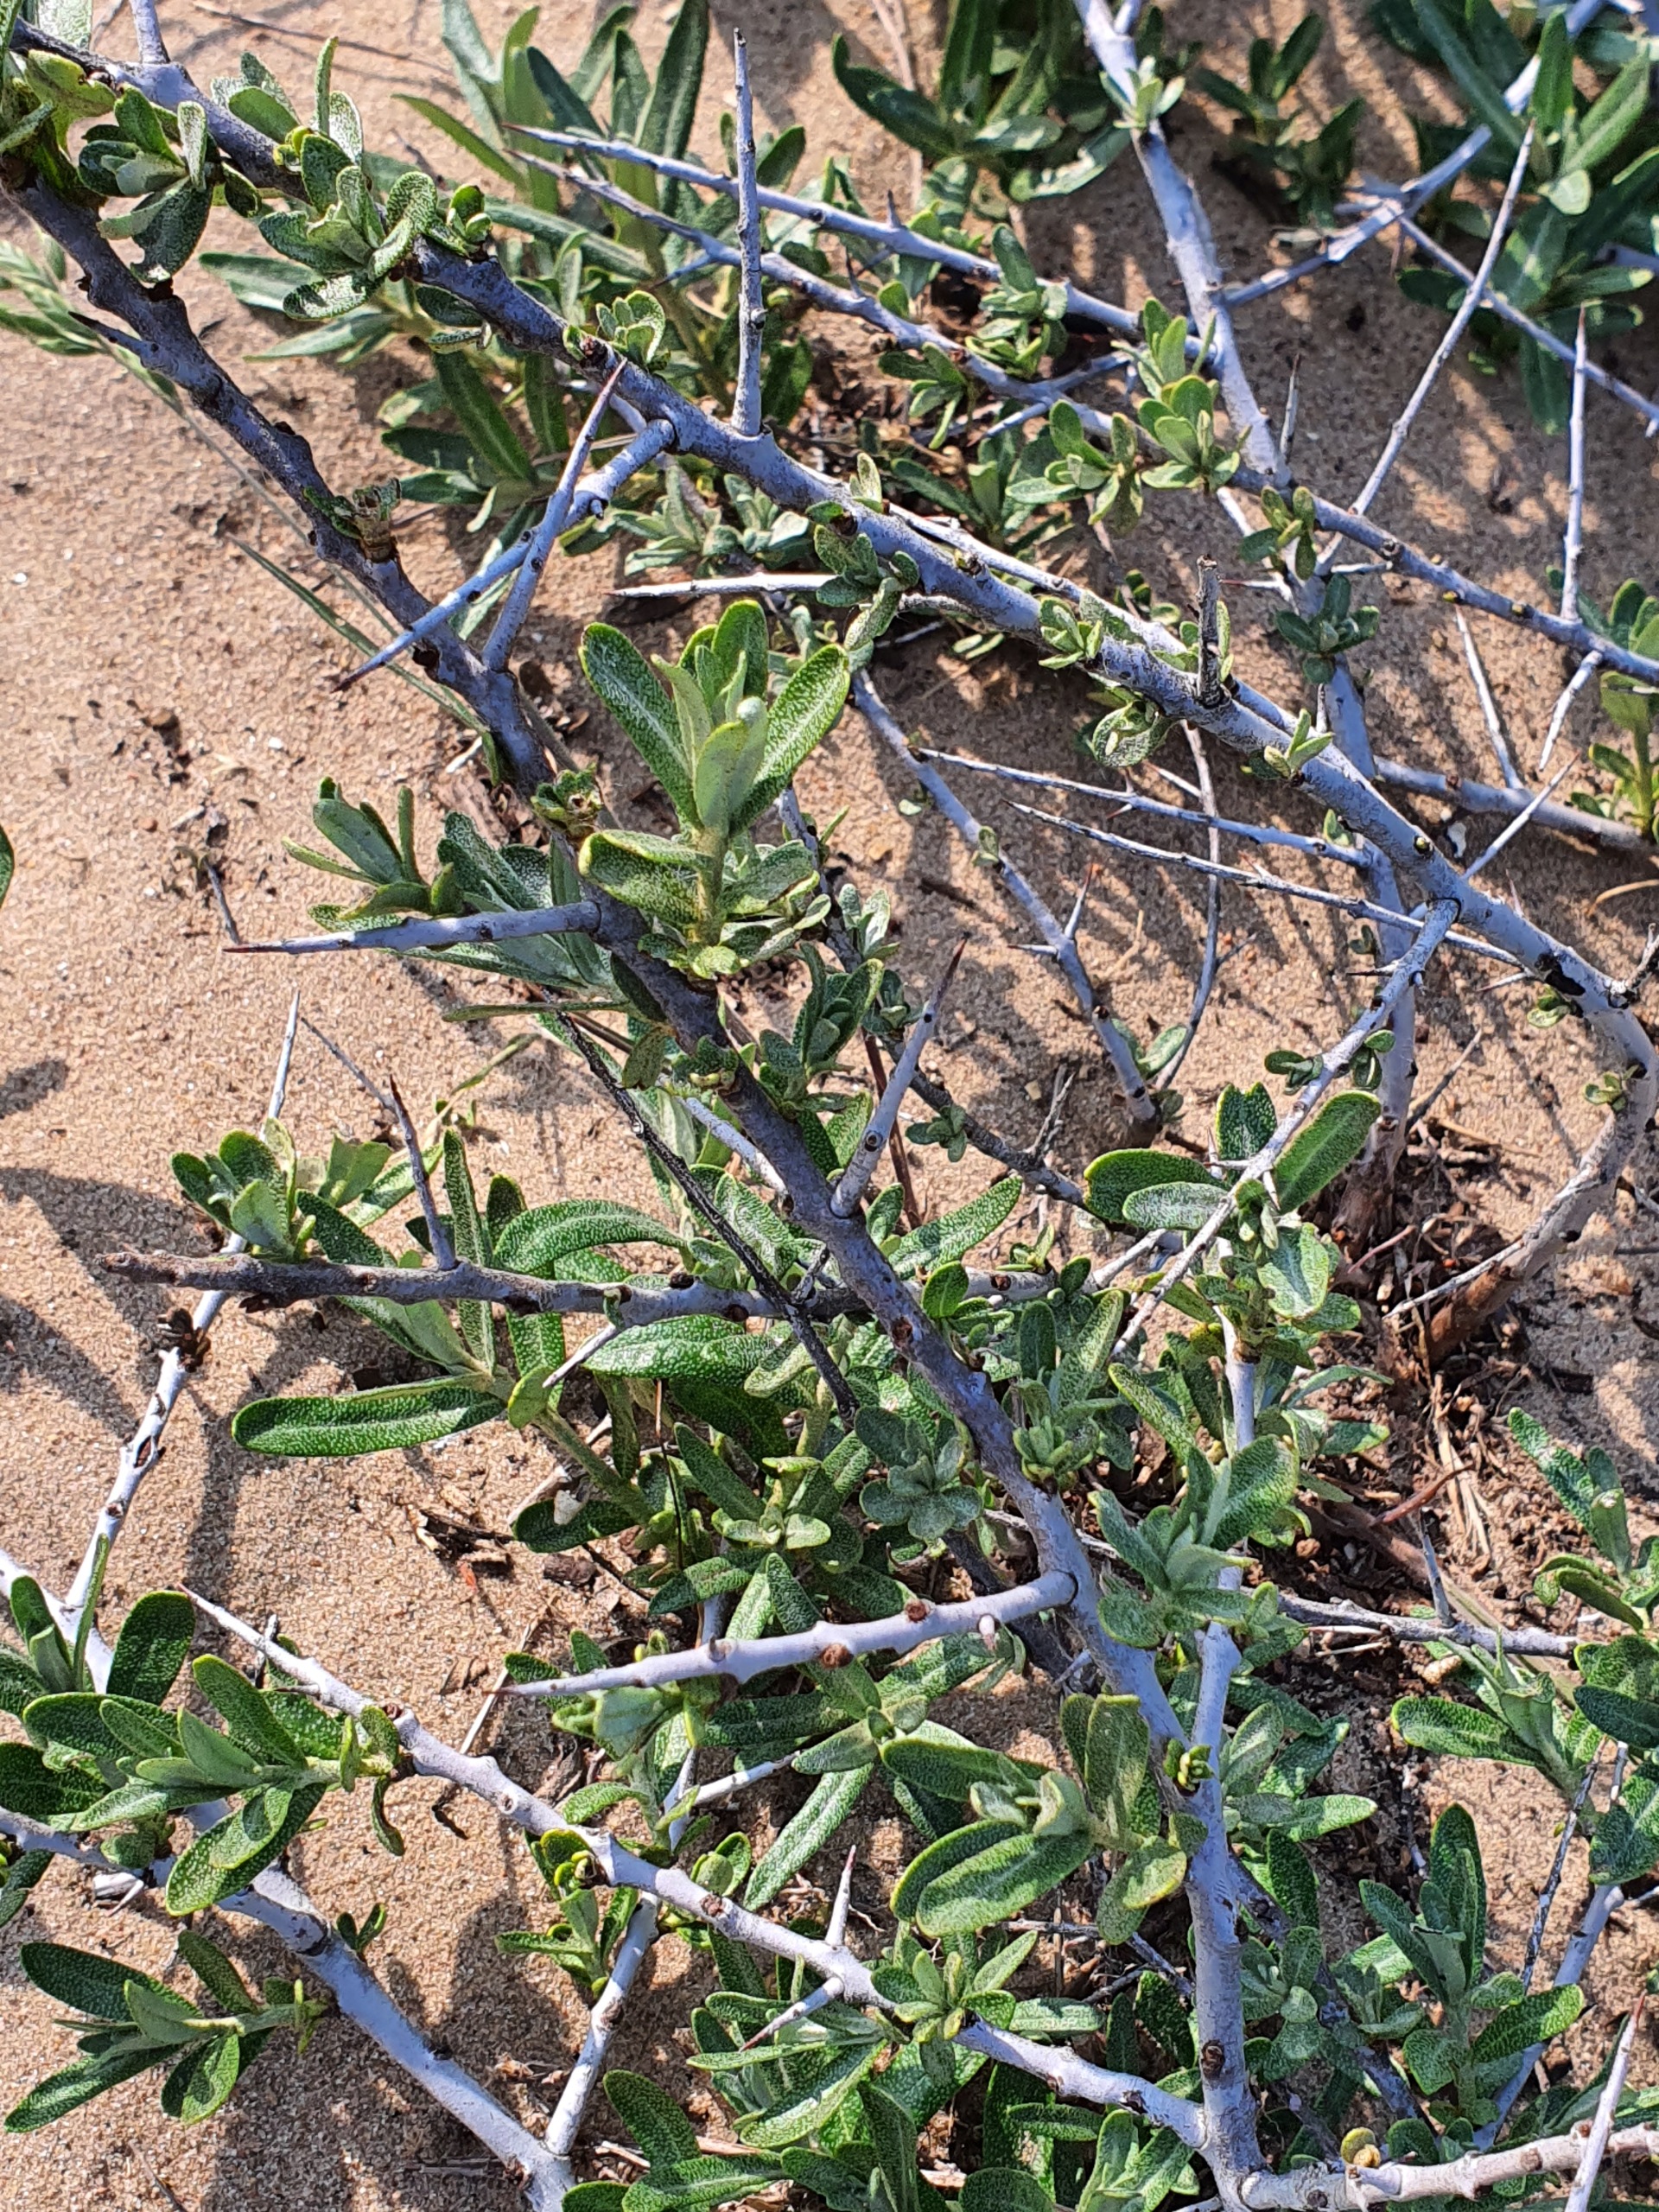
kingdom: Plantae
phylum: Tracheophyta
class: Magnoliopsida
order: Rosales
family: Elaeagnaceae
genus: Hippophae
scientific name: Hippophae rhamnoides
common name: Havtorn
